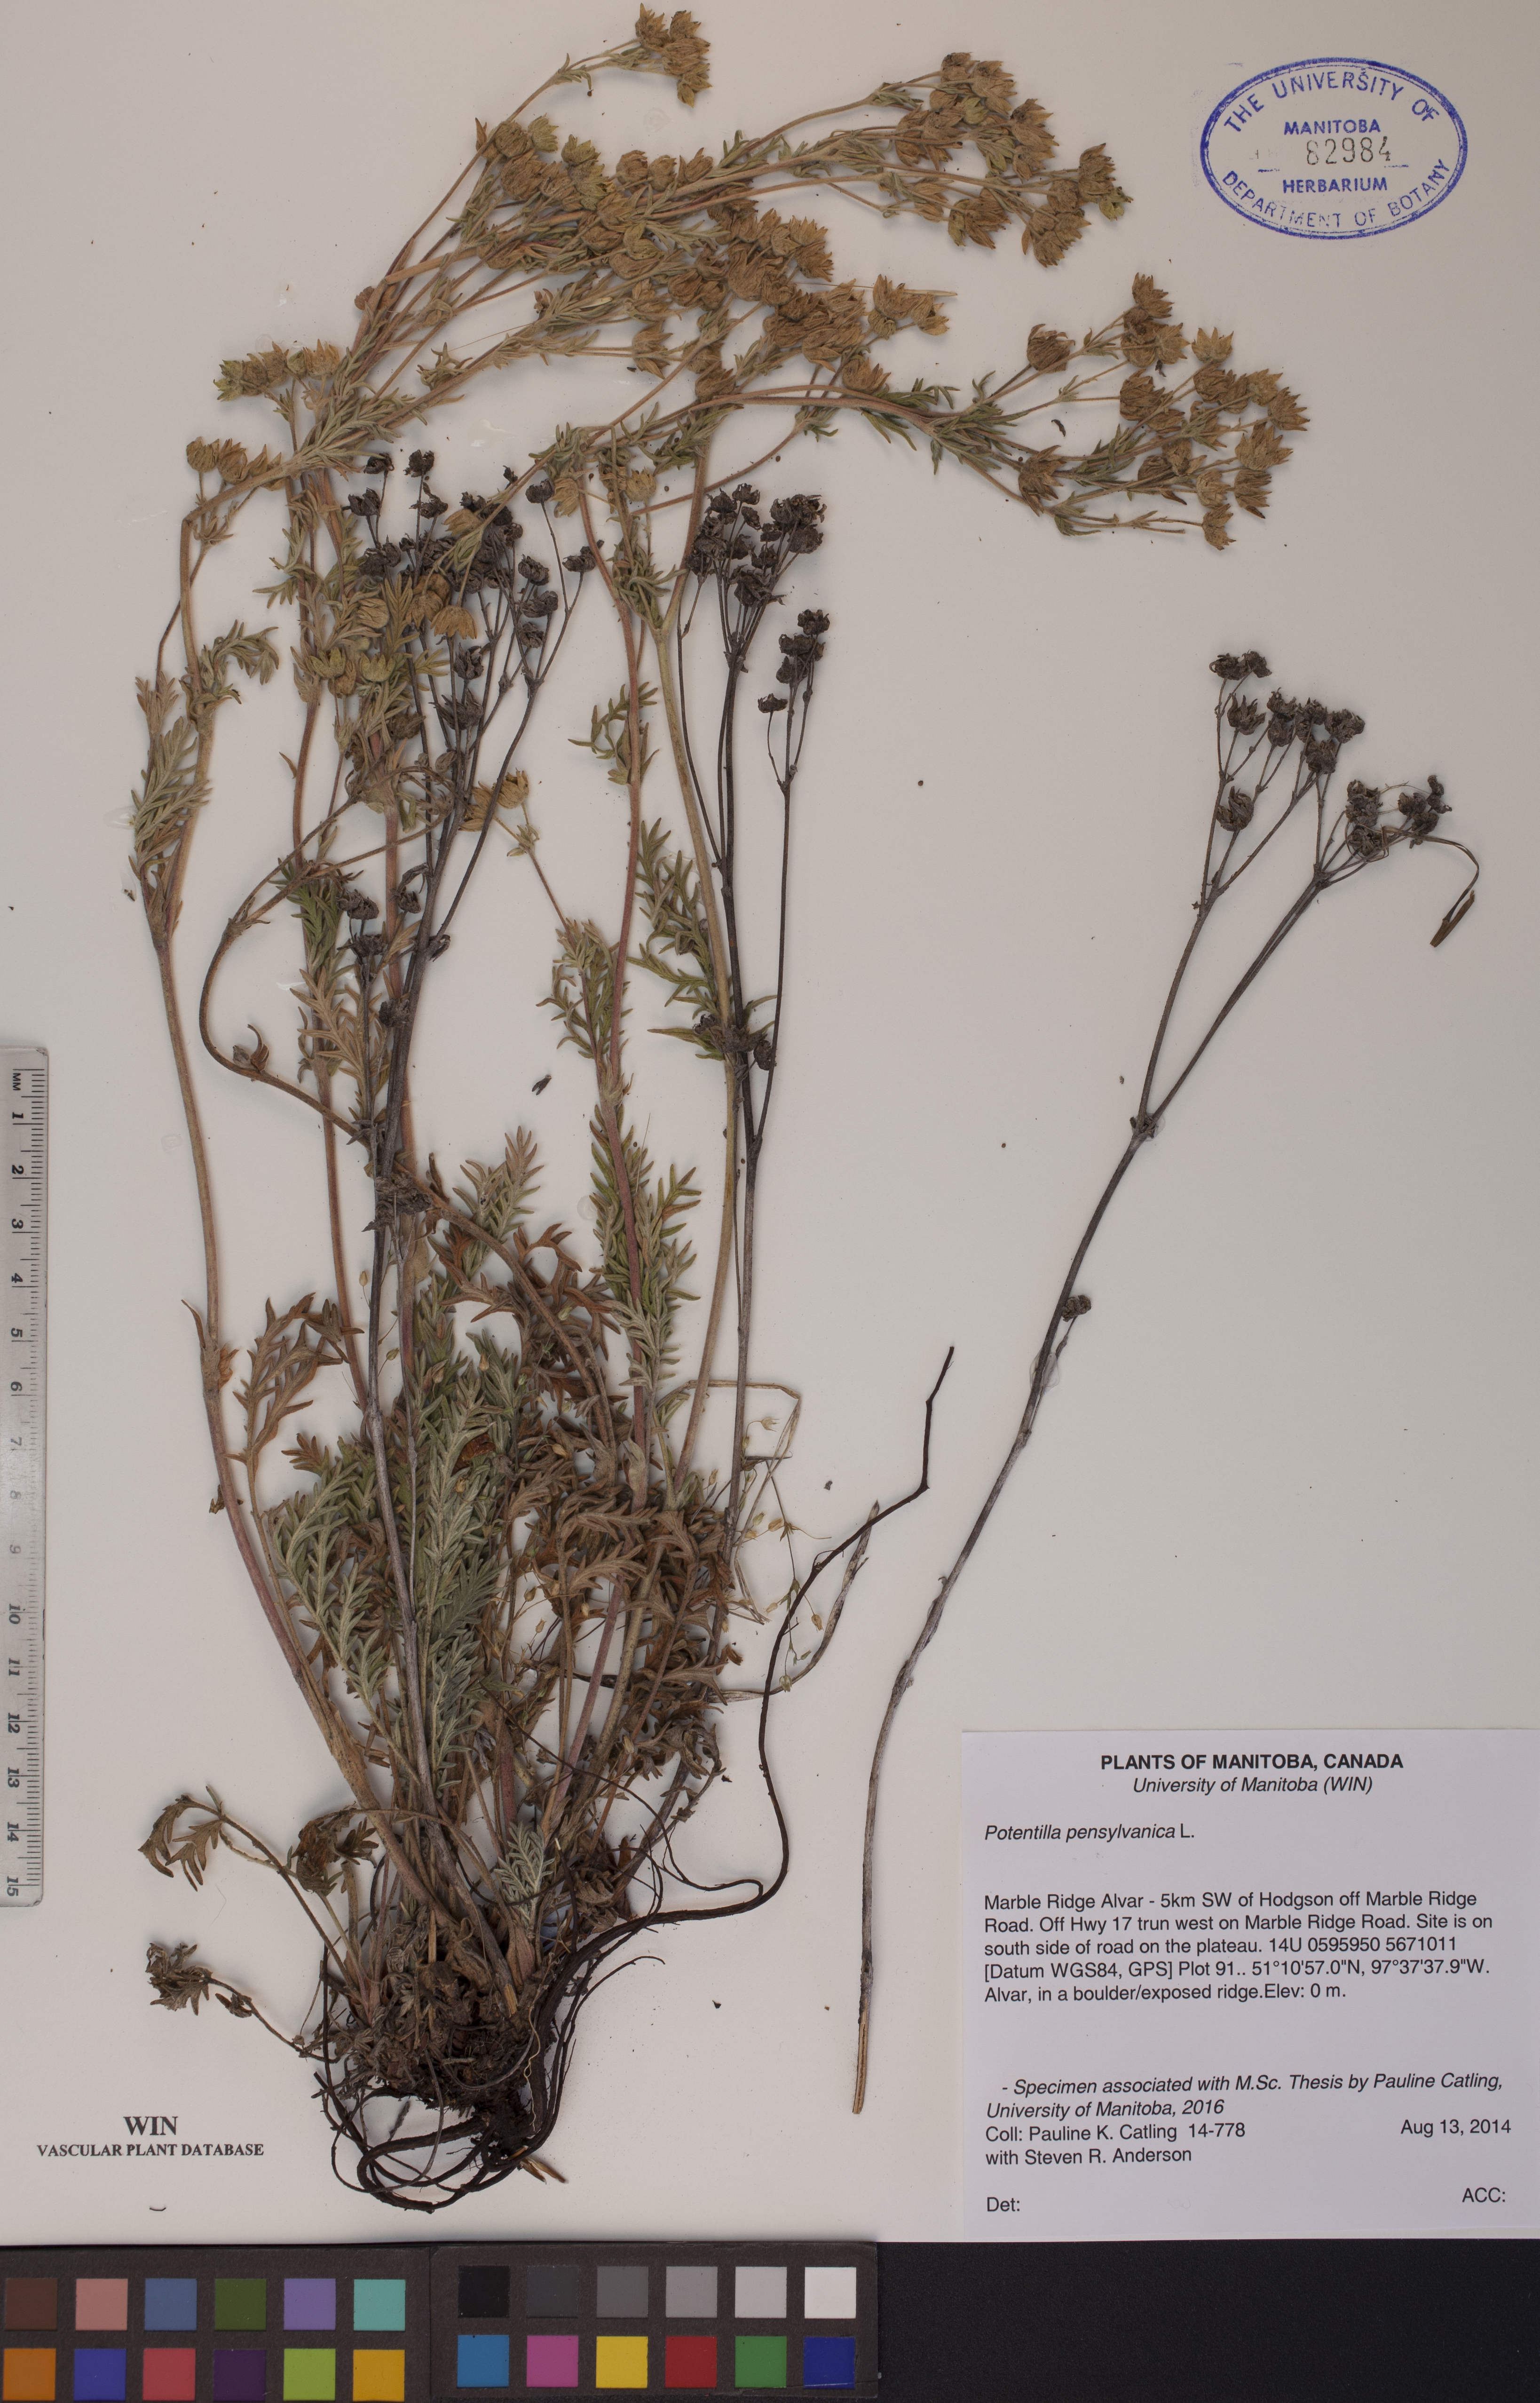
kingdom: Plantae
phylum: Tracheophyta
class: Magnoliopsida
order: Rosales
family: Rosaceae
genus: Potentilla
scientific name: Potentilla pensylvanica
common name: Pennsylvania cinquefoil
